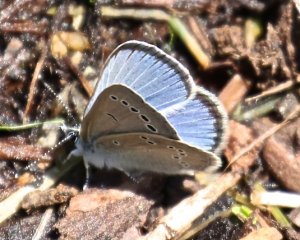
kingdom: Animalia
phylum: Arthropoda
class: Insecta
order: Lepidoptera
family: Lycaenidae
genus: Glaucopsyche
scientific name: Glaucopsyche lygdamus
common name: Silvery Blue
